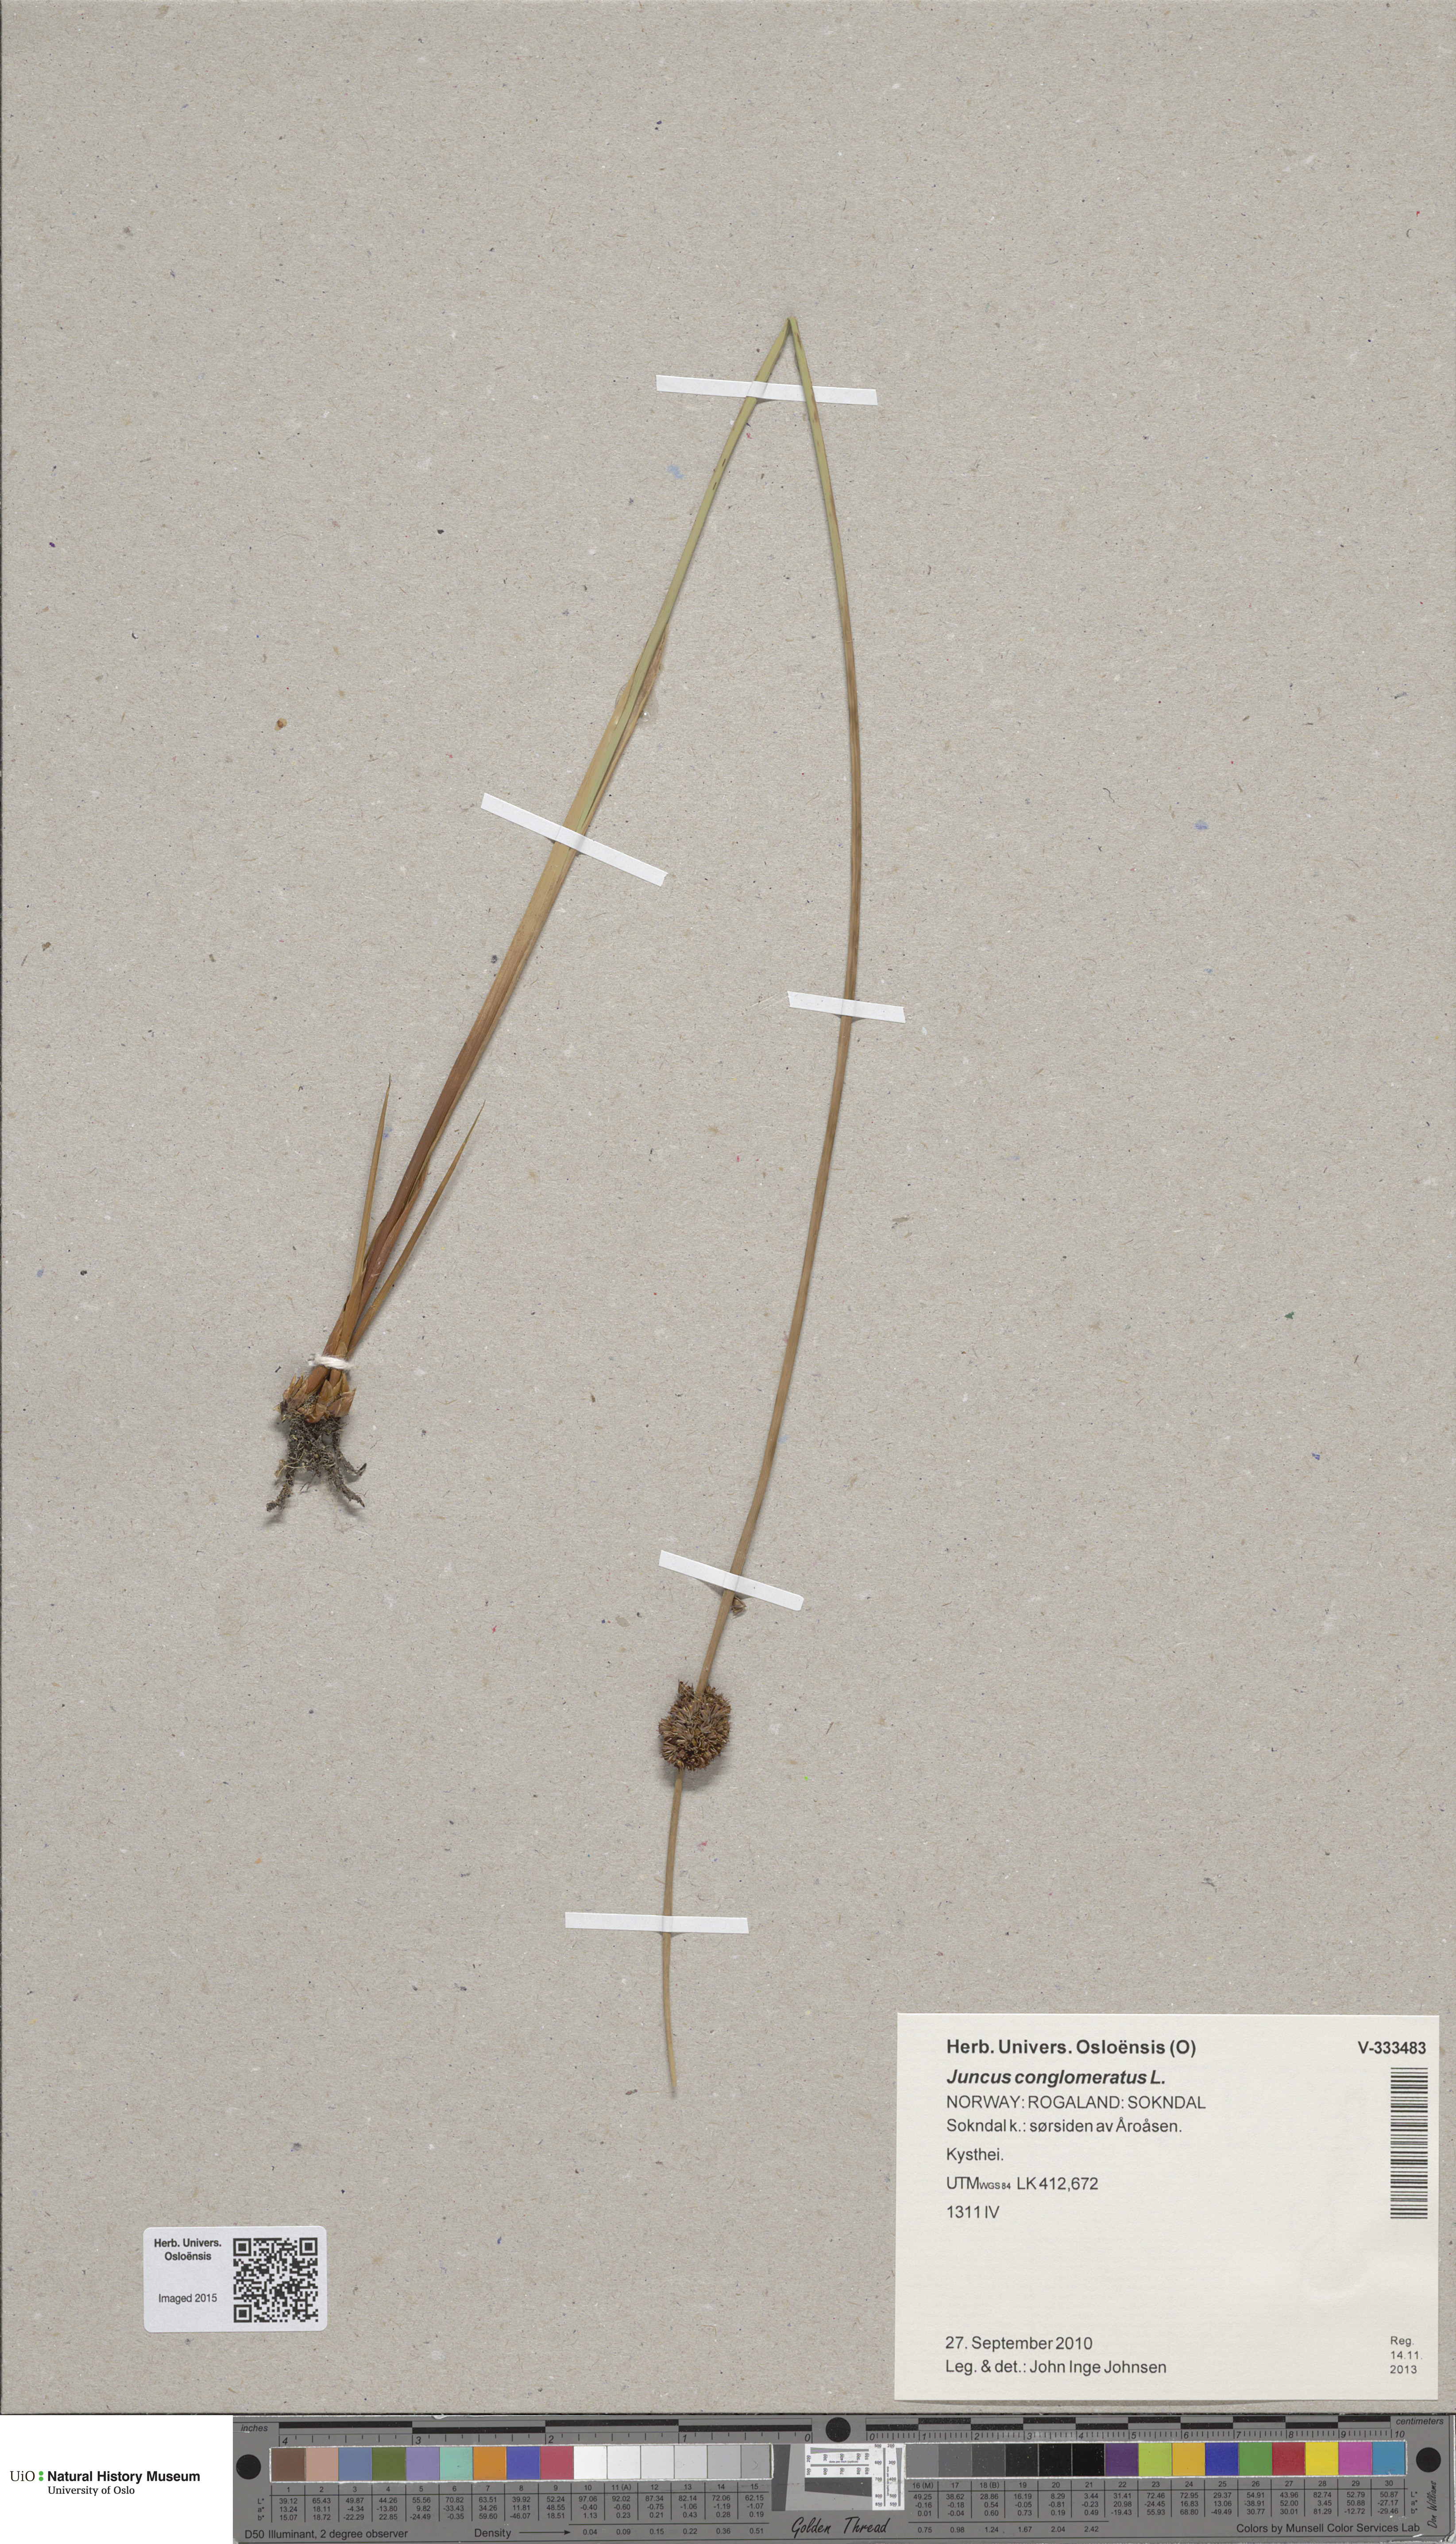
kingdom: Plantae
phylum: Tracheophyta
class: Liliopsida
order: Poales
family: Juncaceae
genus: Juncus
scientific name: Juncus conglomeratus
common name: Compact rush
